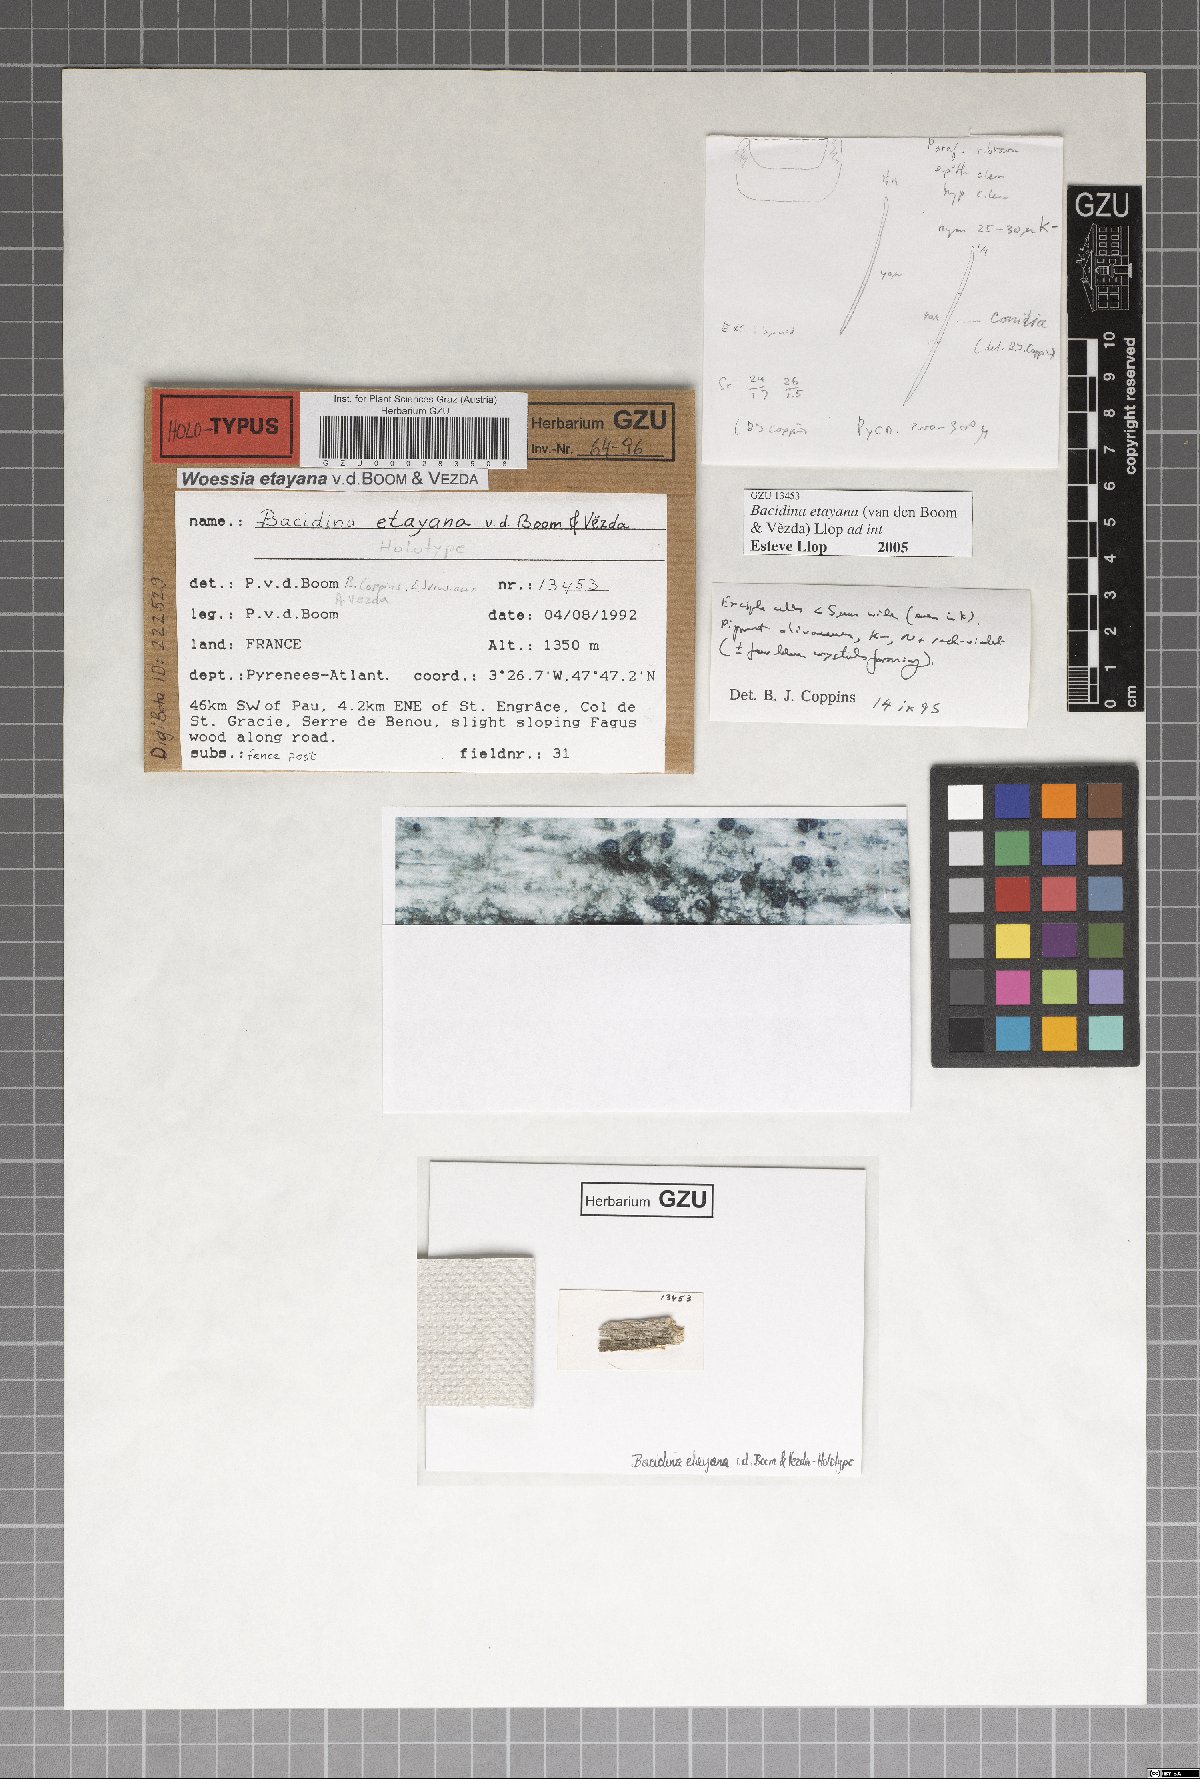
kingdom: Fungi
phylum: Ascomycota
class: Lecanoromycetes
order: Lecanorales
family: Ramalinaceae
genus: Bacidina
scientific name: Bacidina etayana
